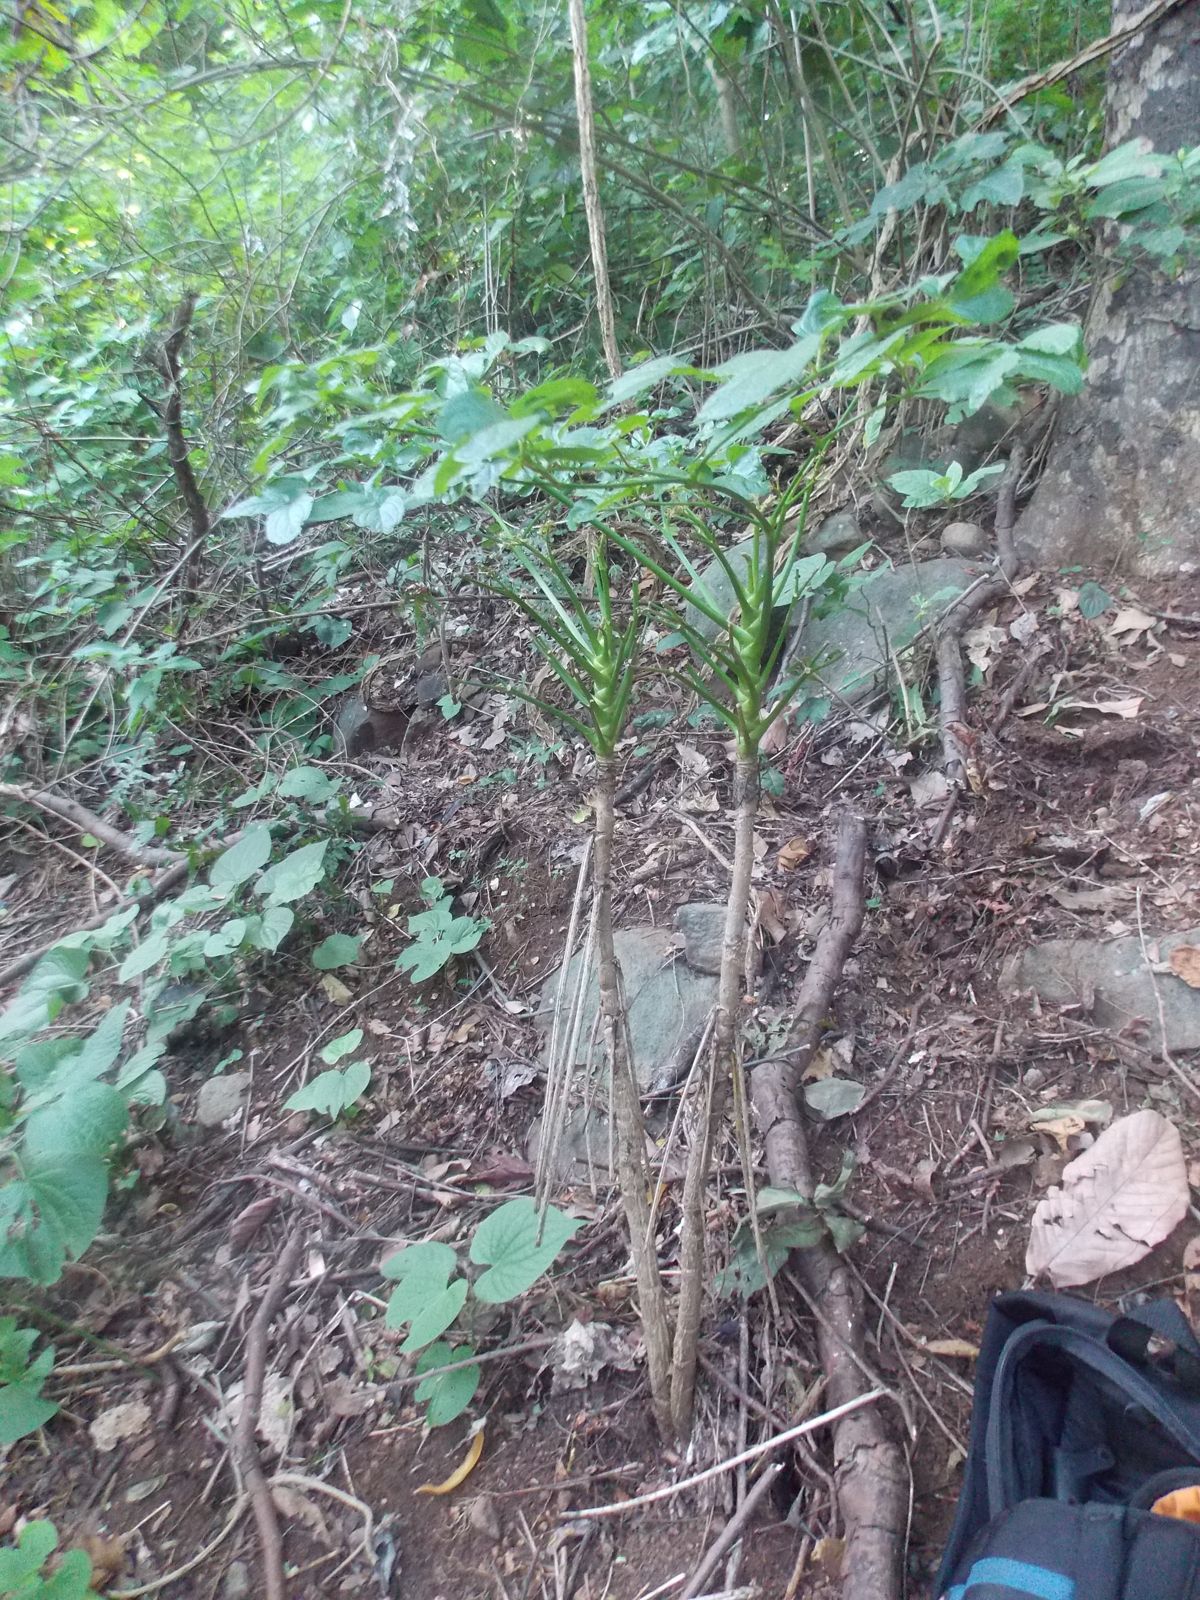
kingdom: Plantae
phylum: Tracheophyta
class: Magnoliopsida
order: Apiales
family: Araliaceae
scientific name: Araliaceae
